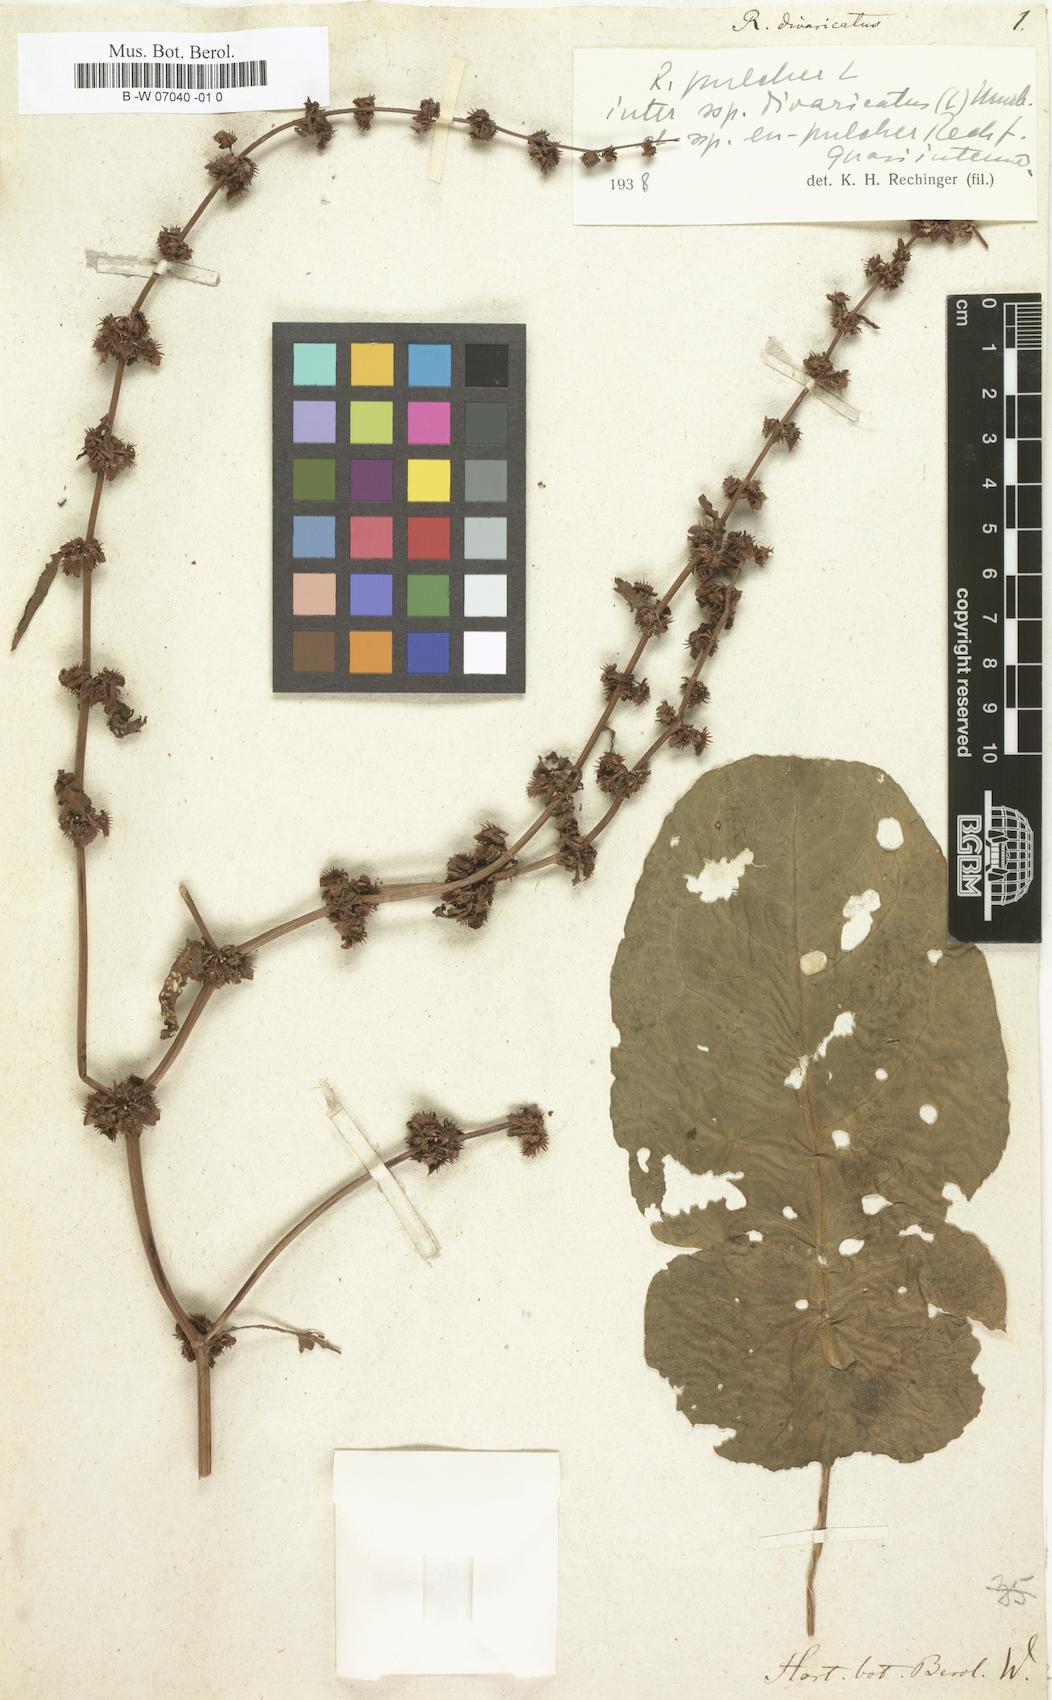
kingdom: Plantae
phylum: Tracheophyta
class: Magnoliopsida
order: Caryophyllales
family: Polygonaceae
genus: Rumex
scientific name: Rumex pulcher
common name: Fiddle dock
